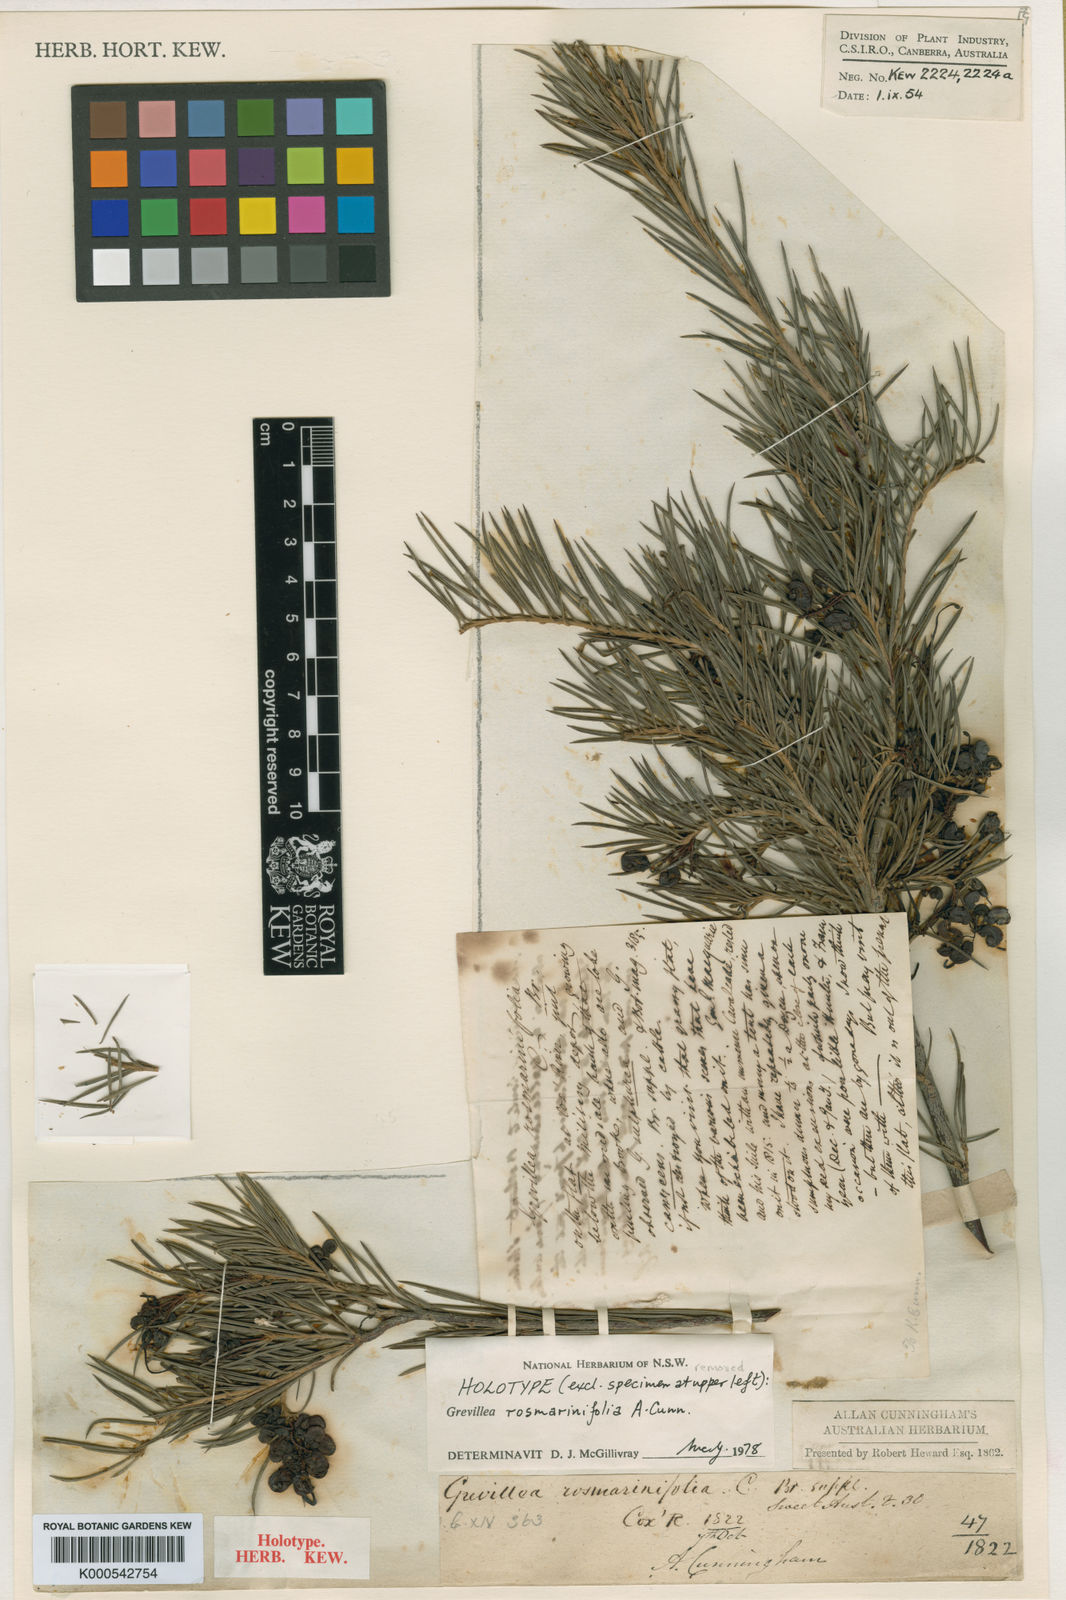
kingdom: Plantae
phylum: Tracheophyta
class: Magnoliopsida
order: Proteales
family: Proteaceae
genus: Grevillea
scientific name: Grevillea rosmarinifolia
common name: Rosemary grevillea
